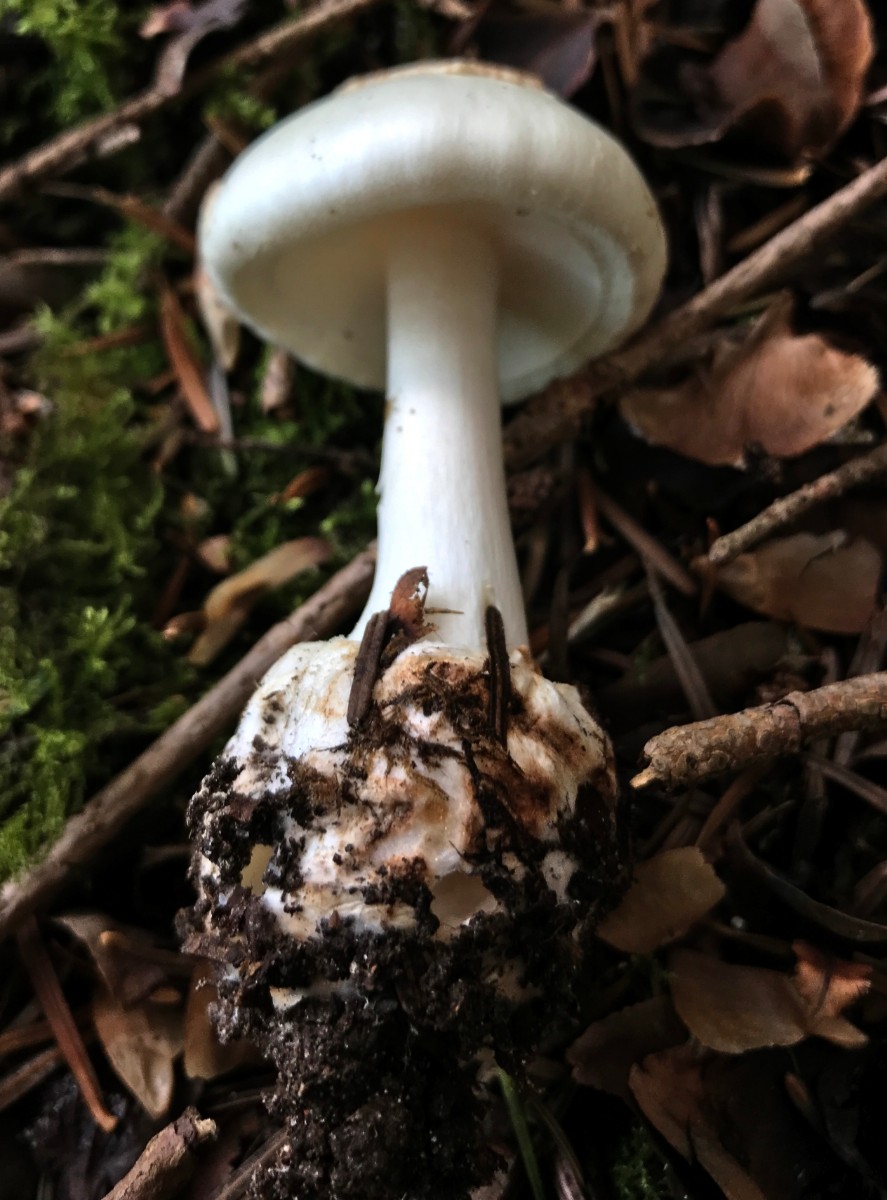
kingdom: Fungi
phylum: Basidiomycota
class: Agaricomycetes
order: Agaricales
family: Amanitaceae
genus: Amanita
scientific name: Amanita citrina
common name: kugleknoldet fluesvamp
